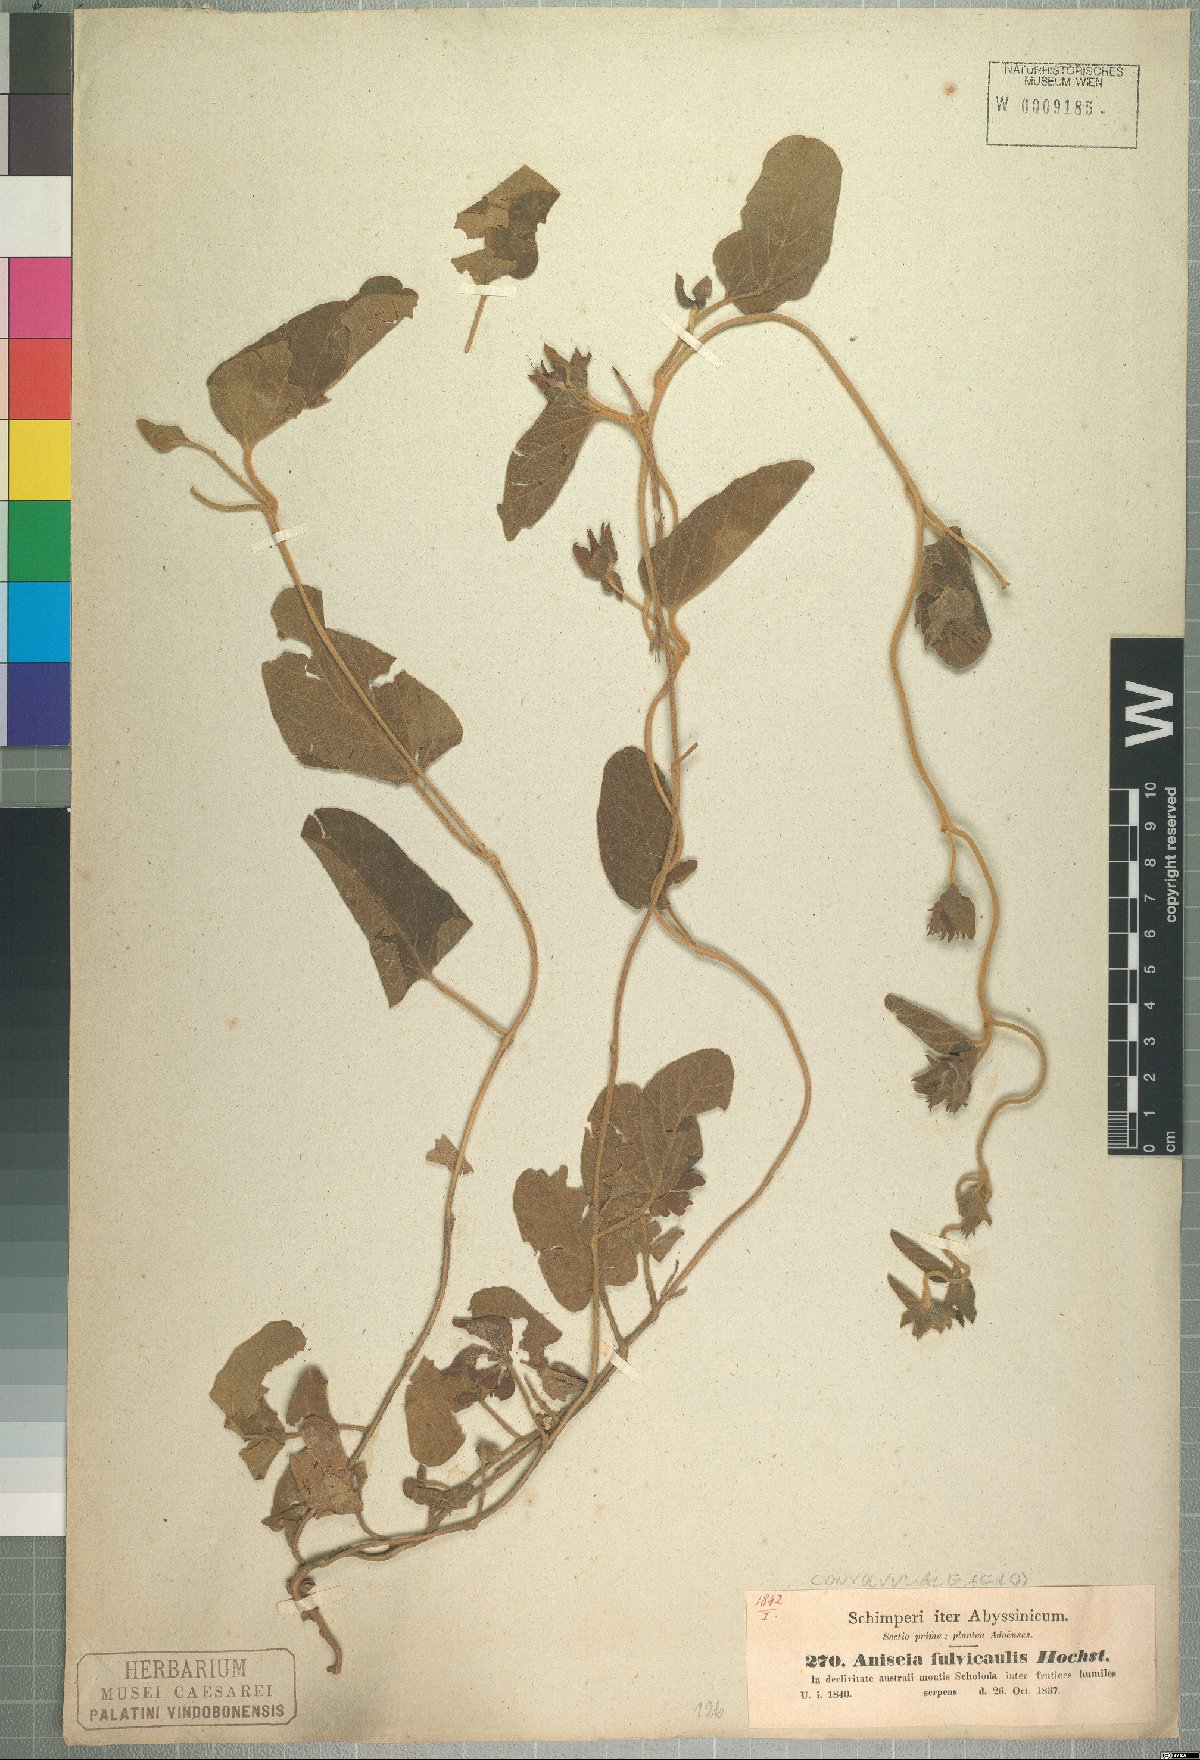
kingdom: Plantae
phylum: Tracheophyta
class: Magnoliopsida
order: Solanales
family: Convolvulaceae
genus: Ipomoea
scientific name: Ipomoea fulvicaulis
